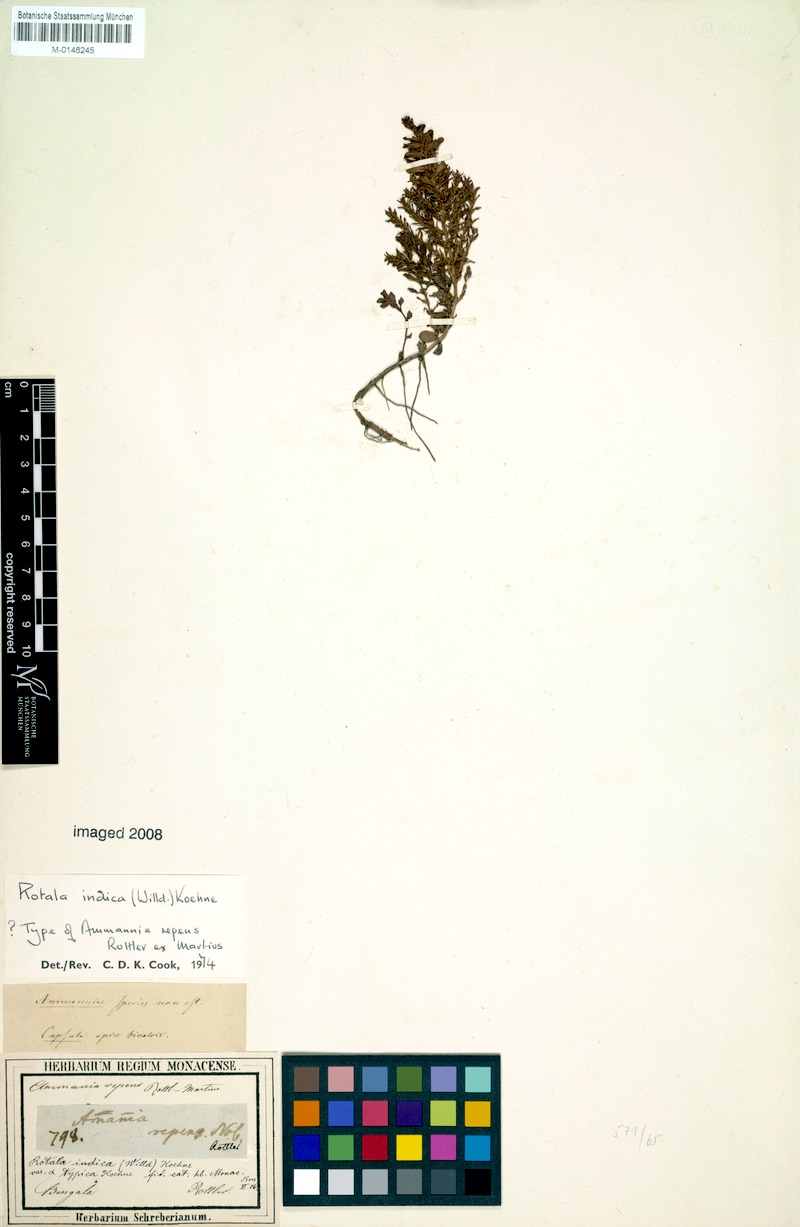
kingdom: Plantae
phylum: Tracheophyta
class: Magnoliopsida
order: Myrtales
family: Lythraceae
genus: Rotala
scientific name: Rotala indica
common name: Indian toothcup
